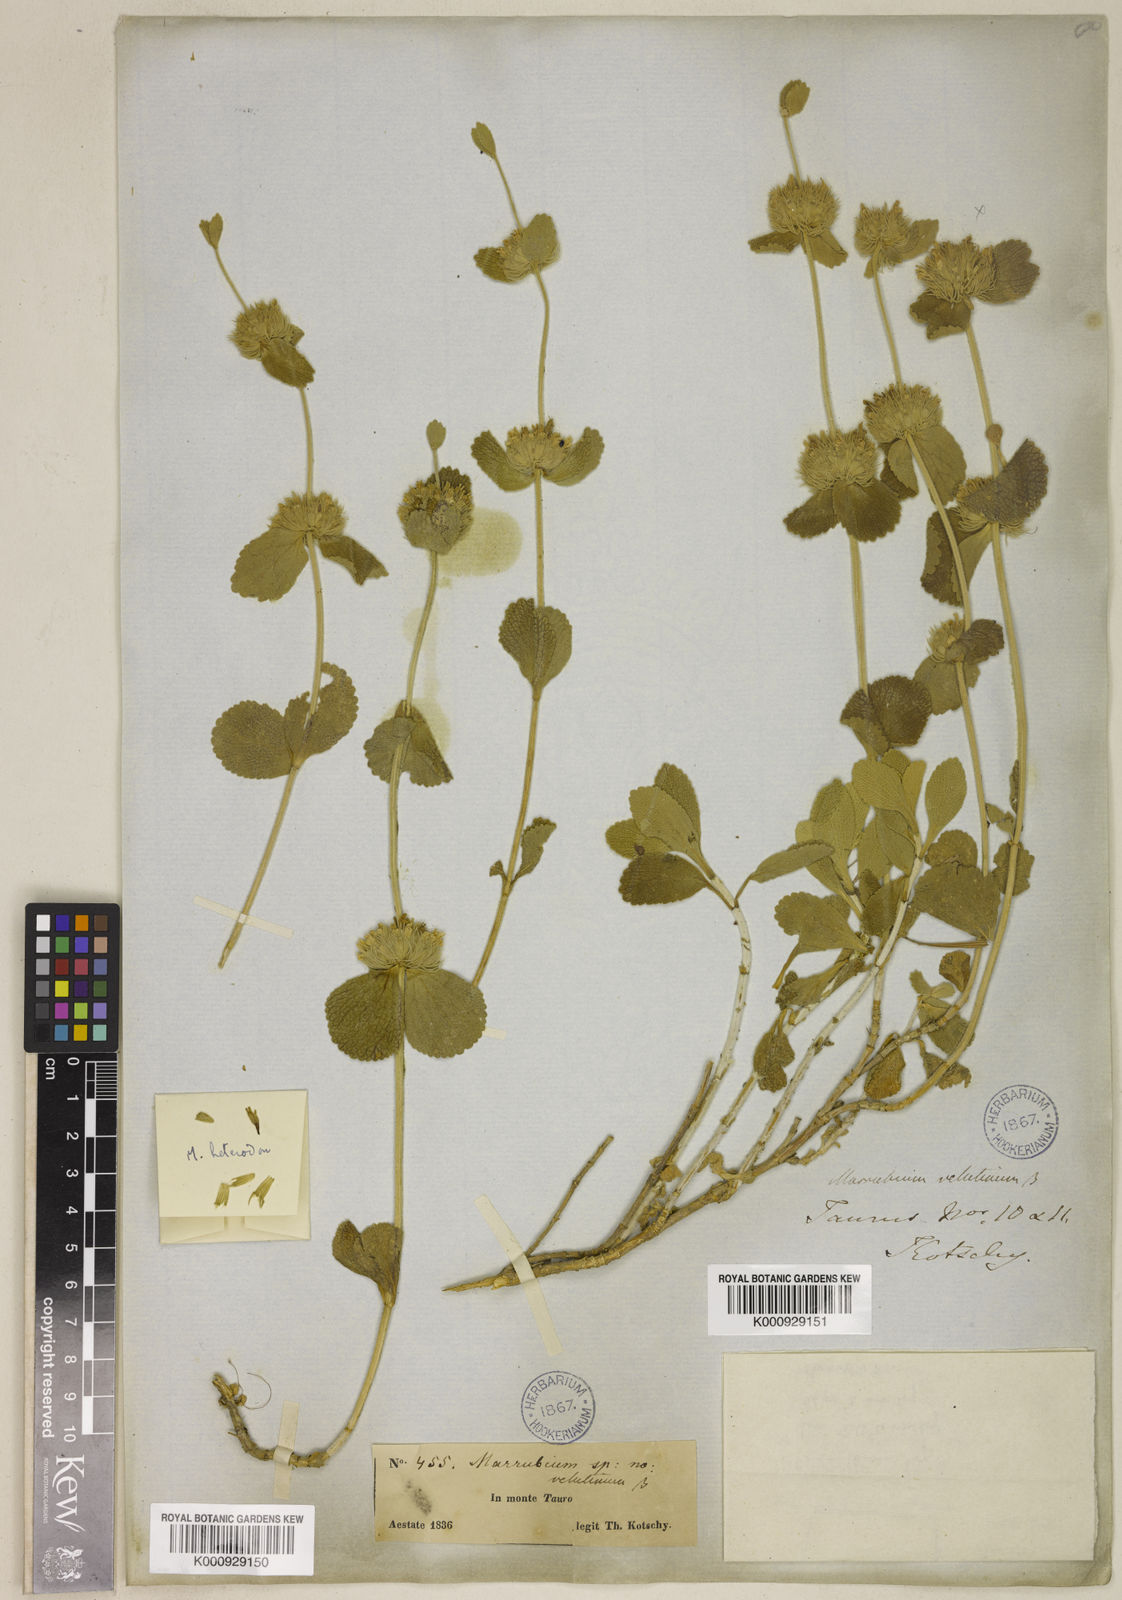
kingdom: Plantae
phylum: Tracheophyta
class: Magnoliopsida
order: Lamiales
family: Lamiaceae
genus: Marrubium
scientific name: Marrubium heterodon
